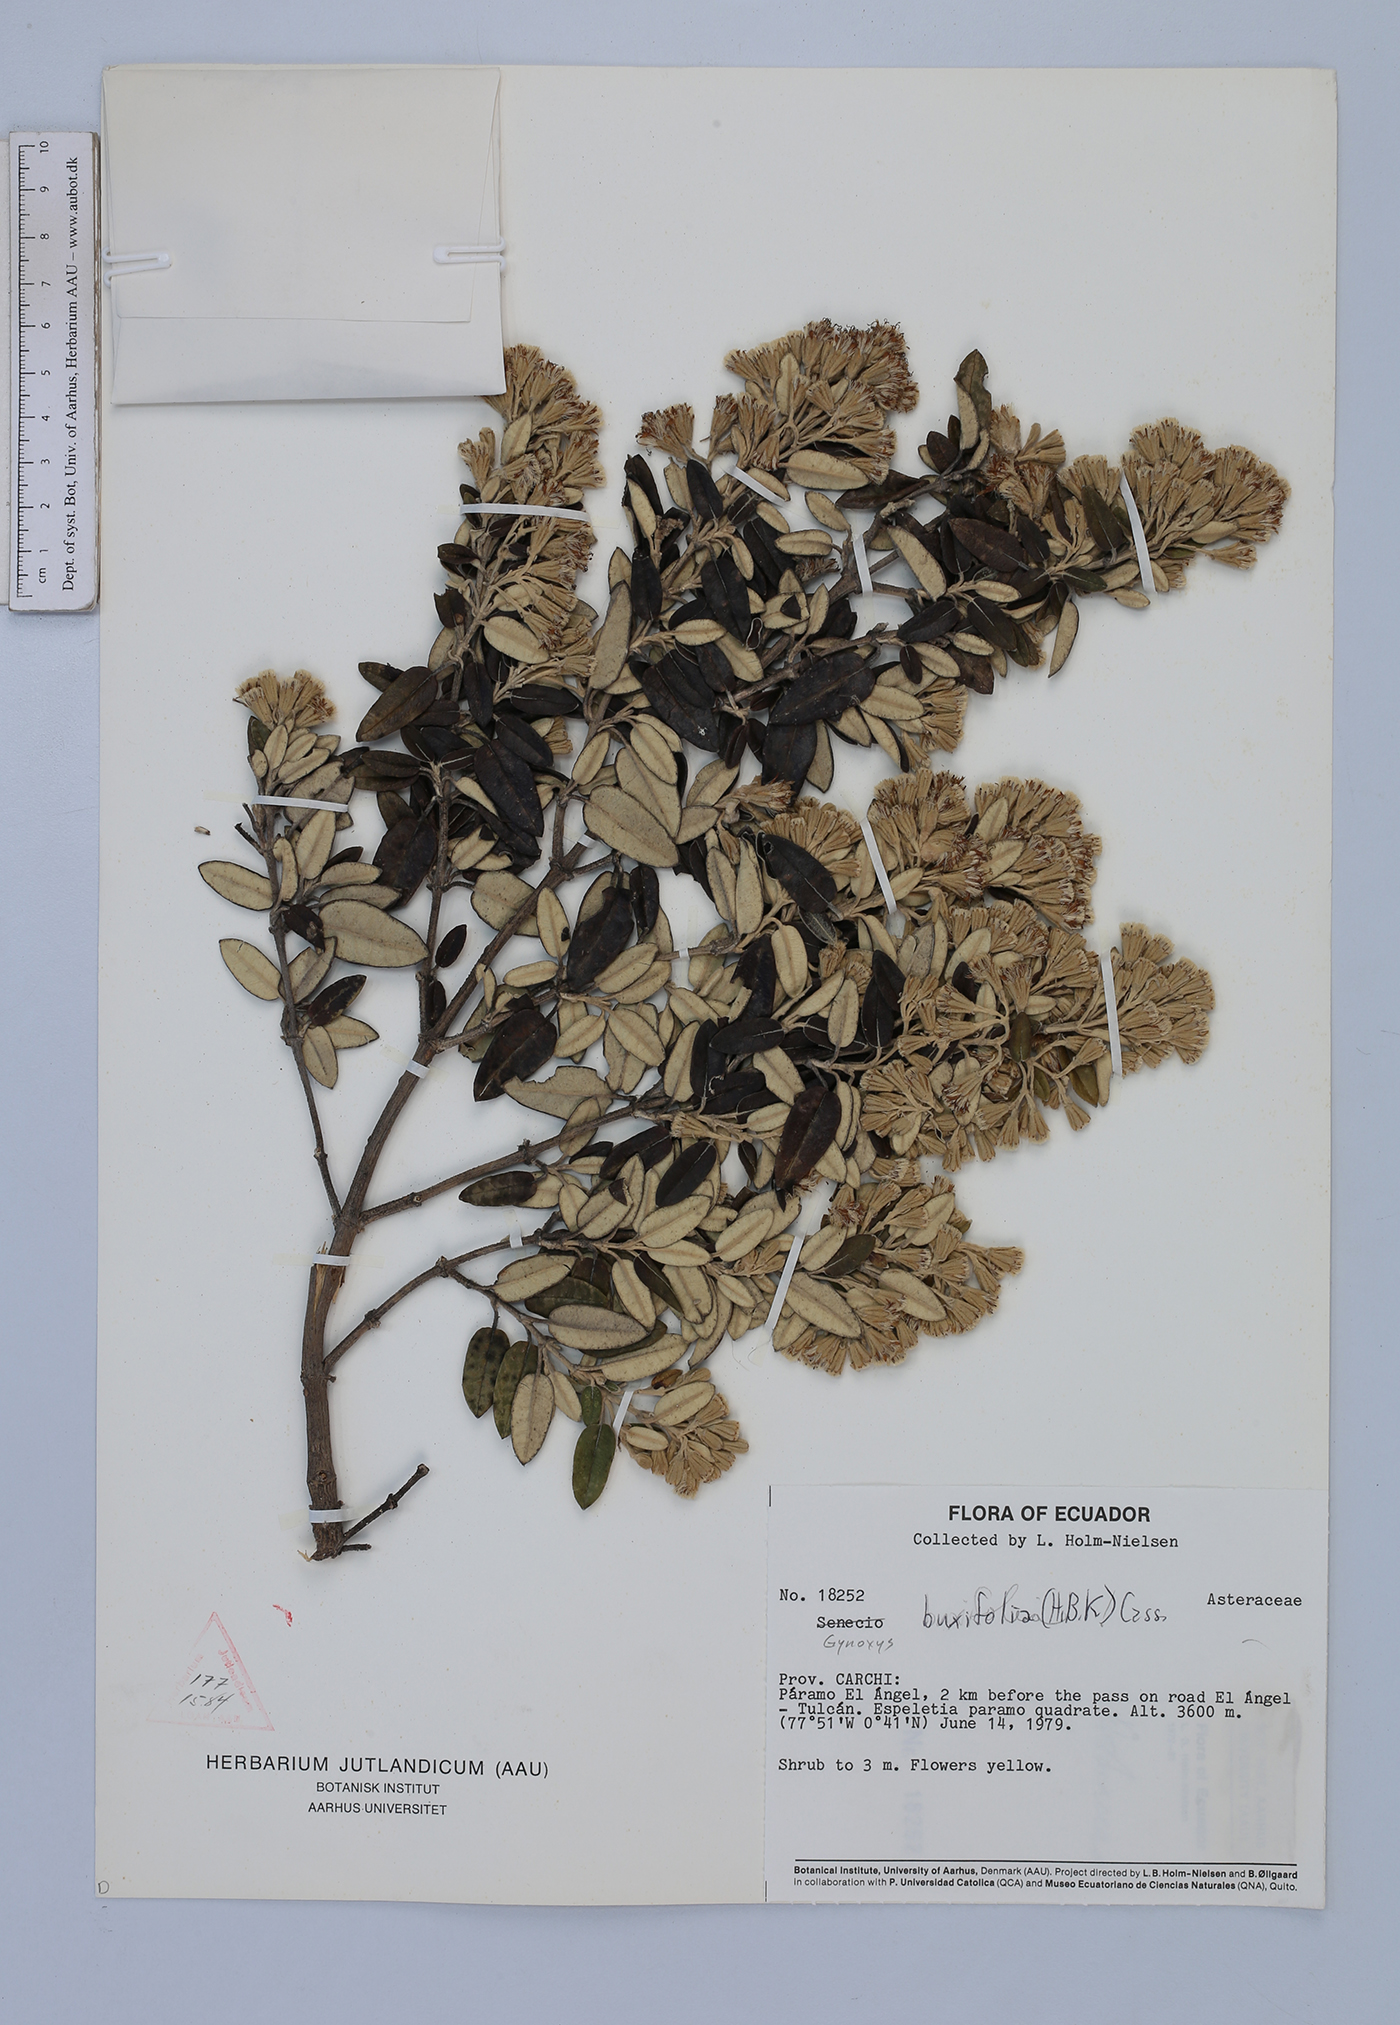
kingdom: Plantae
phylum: Tracheophyta
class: Magnoliopsida
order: Asterales
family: Asteraceae
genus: Gynoxys
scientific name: Gynoxys buxifolia
